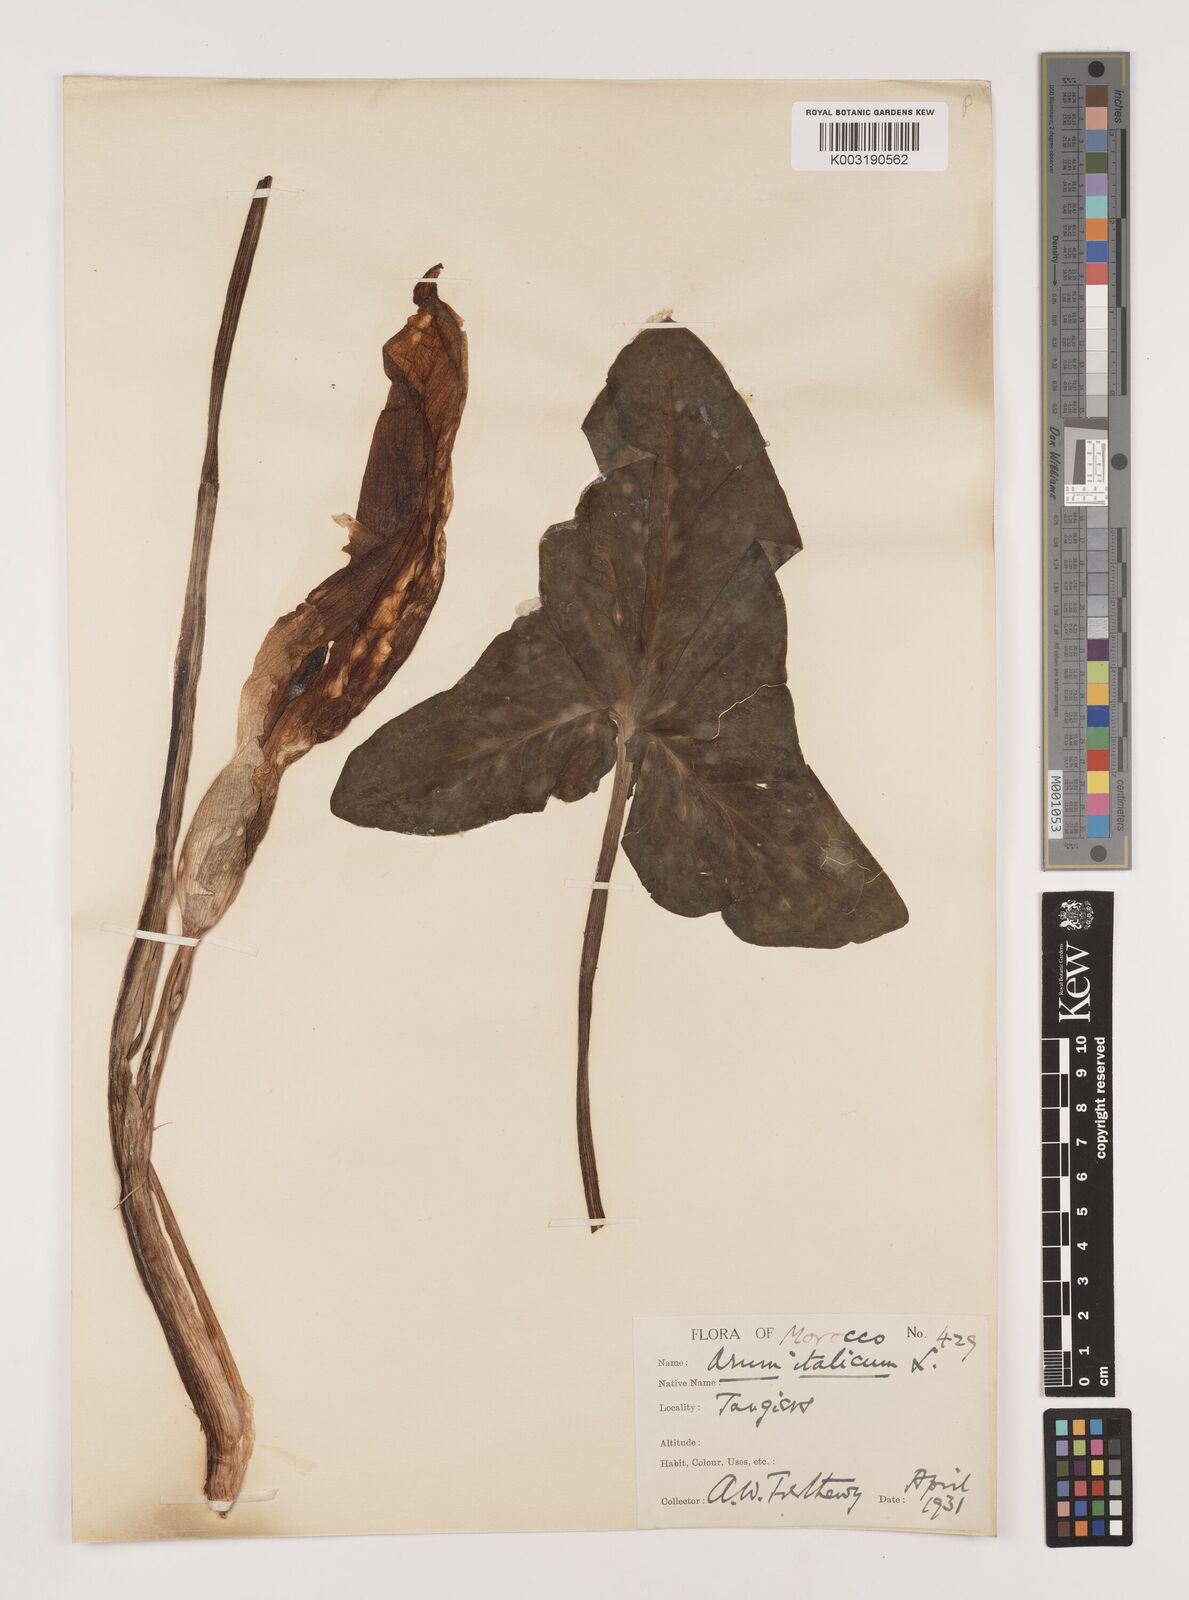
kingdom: Plantae
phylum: Tracheophyta
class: Liliopsida
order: Alismatales
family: Araceae
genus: Arum
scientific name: Arum italicum
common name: Italian lords-and-ladies
